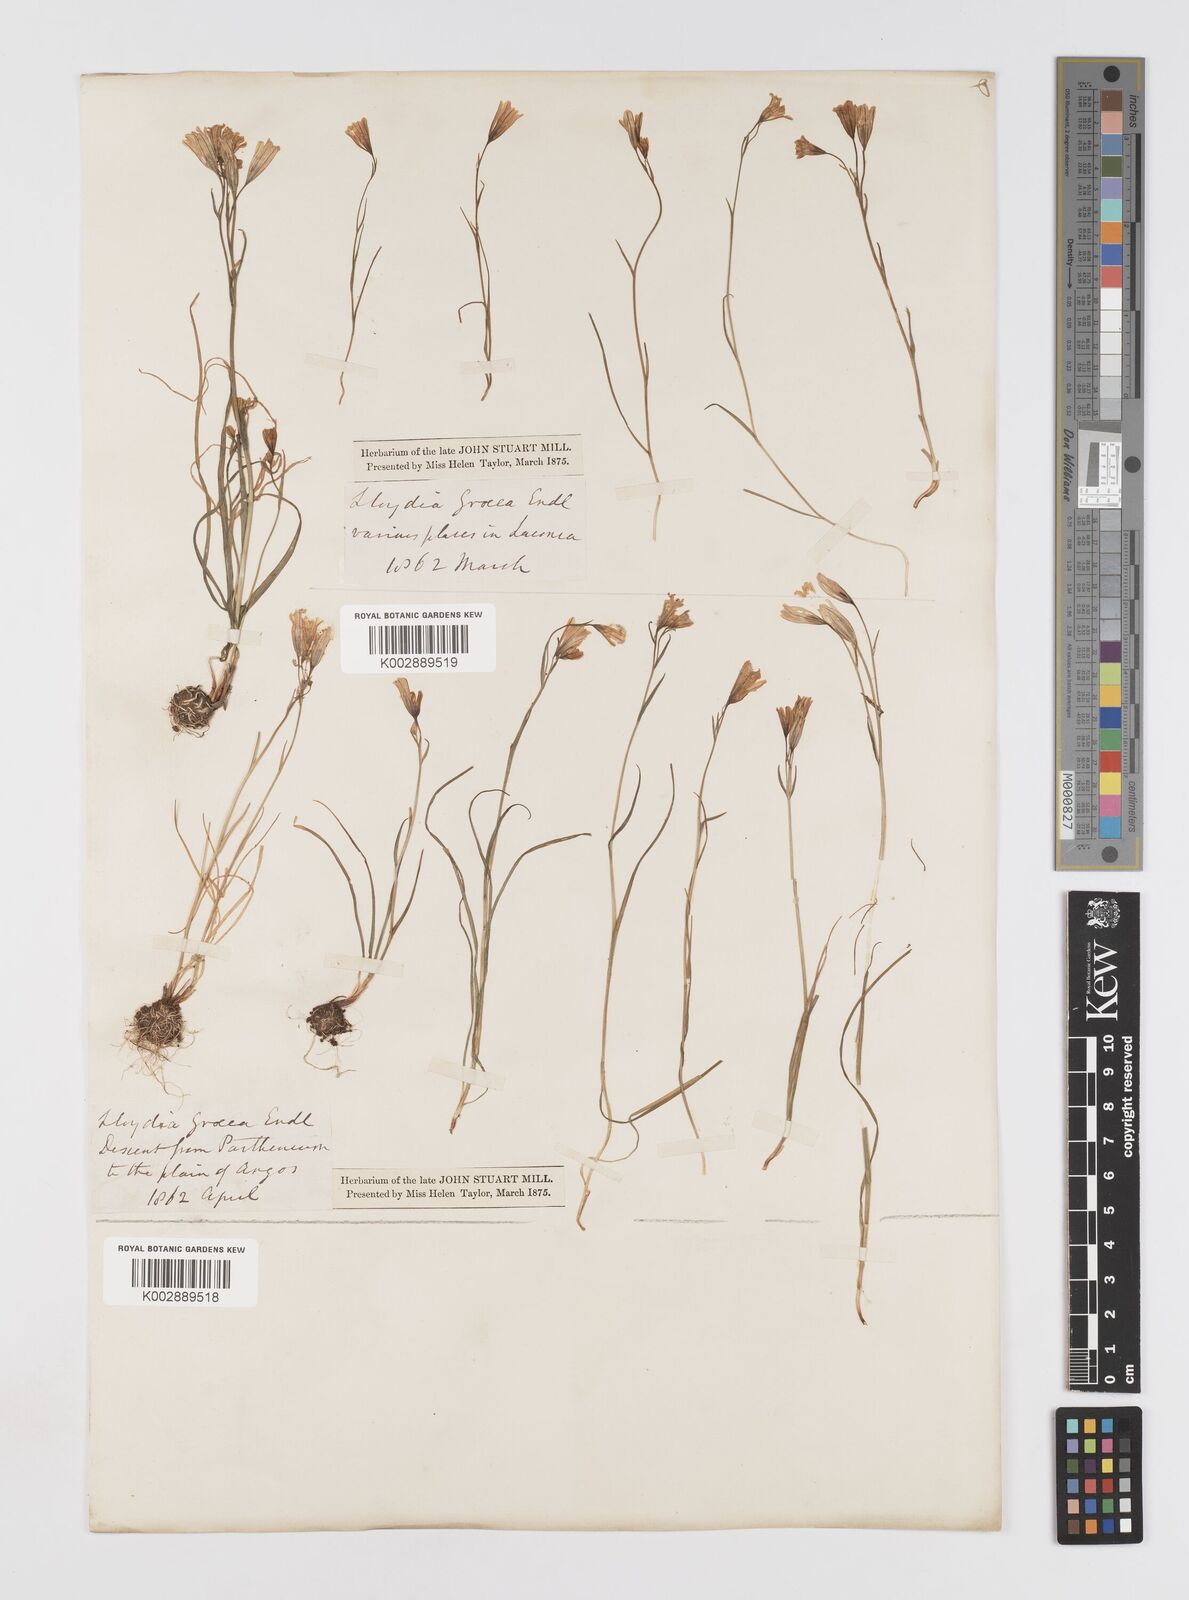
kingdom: Plantae
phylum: Tracheophyta
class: Liliopsida
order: Liliales
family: Liliaceae
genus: Gagea
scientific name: Gagea graeca
